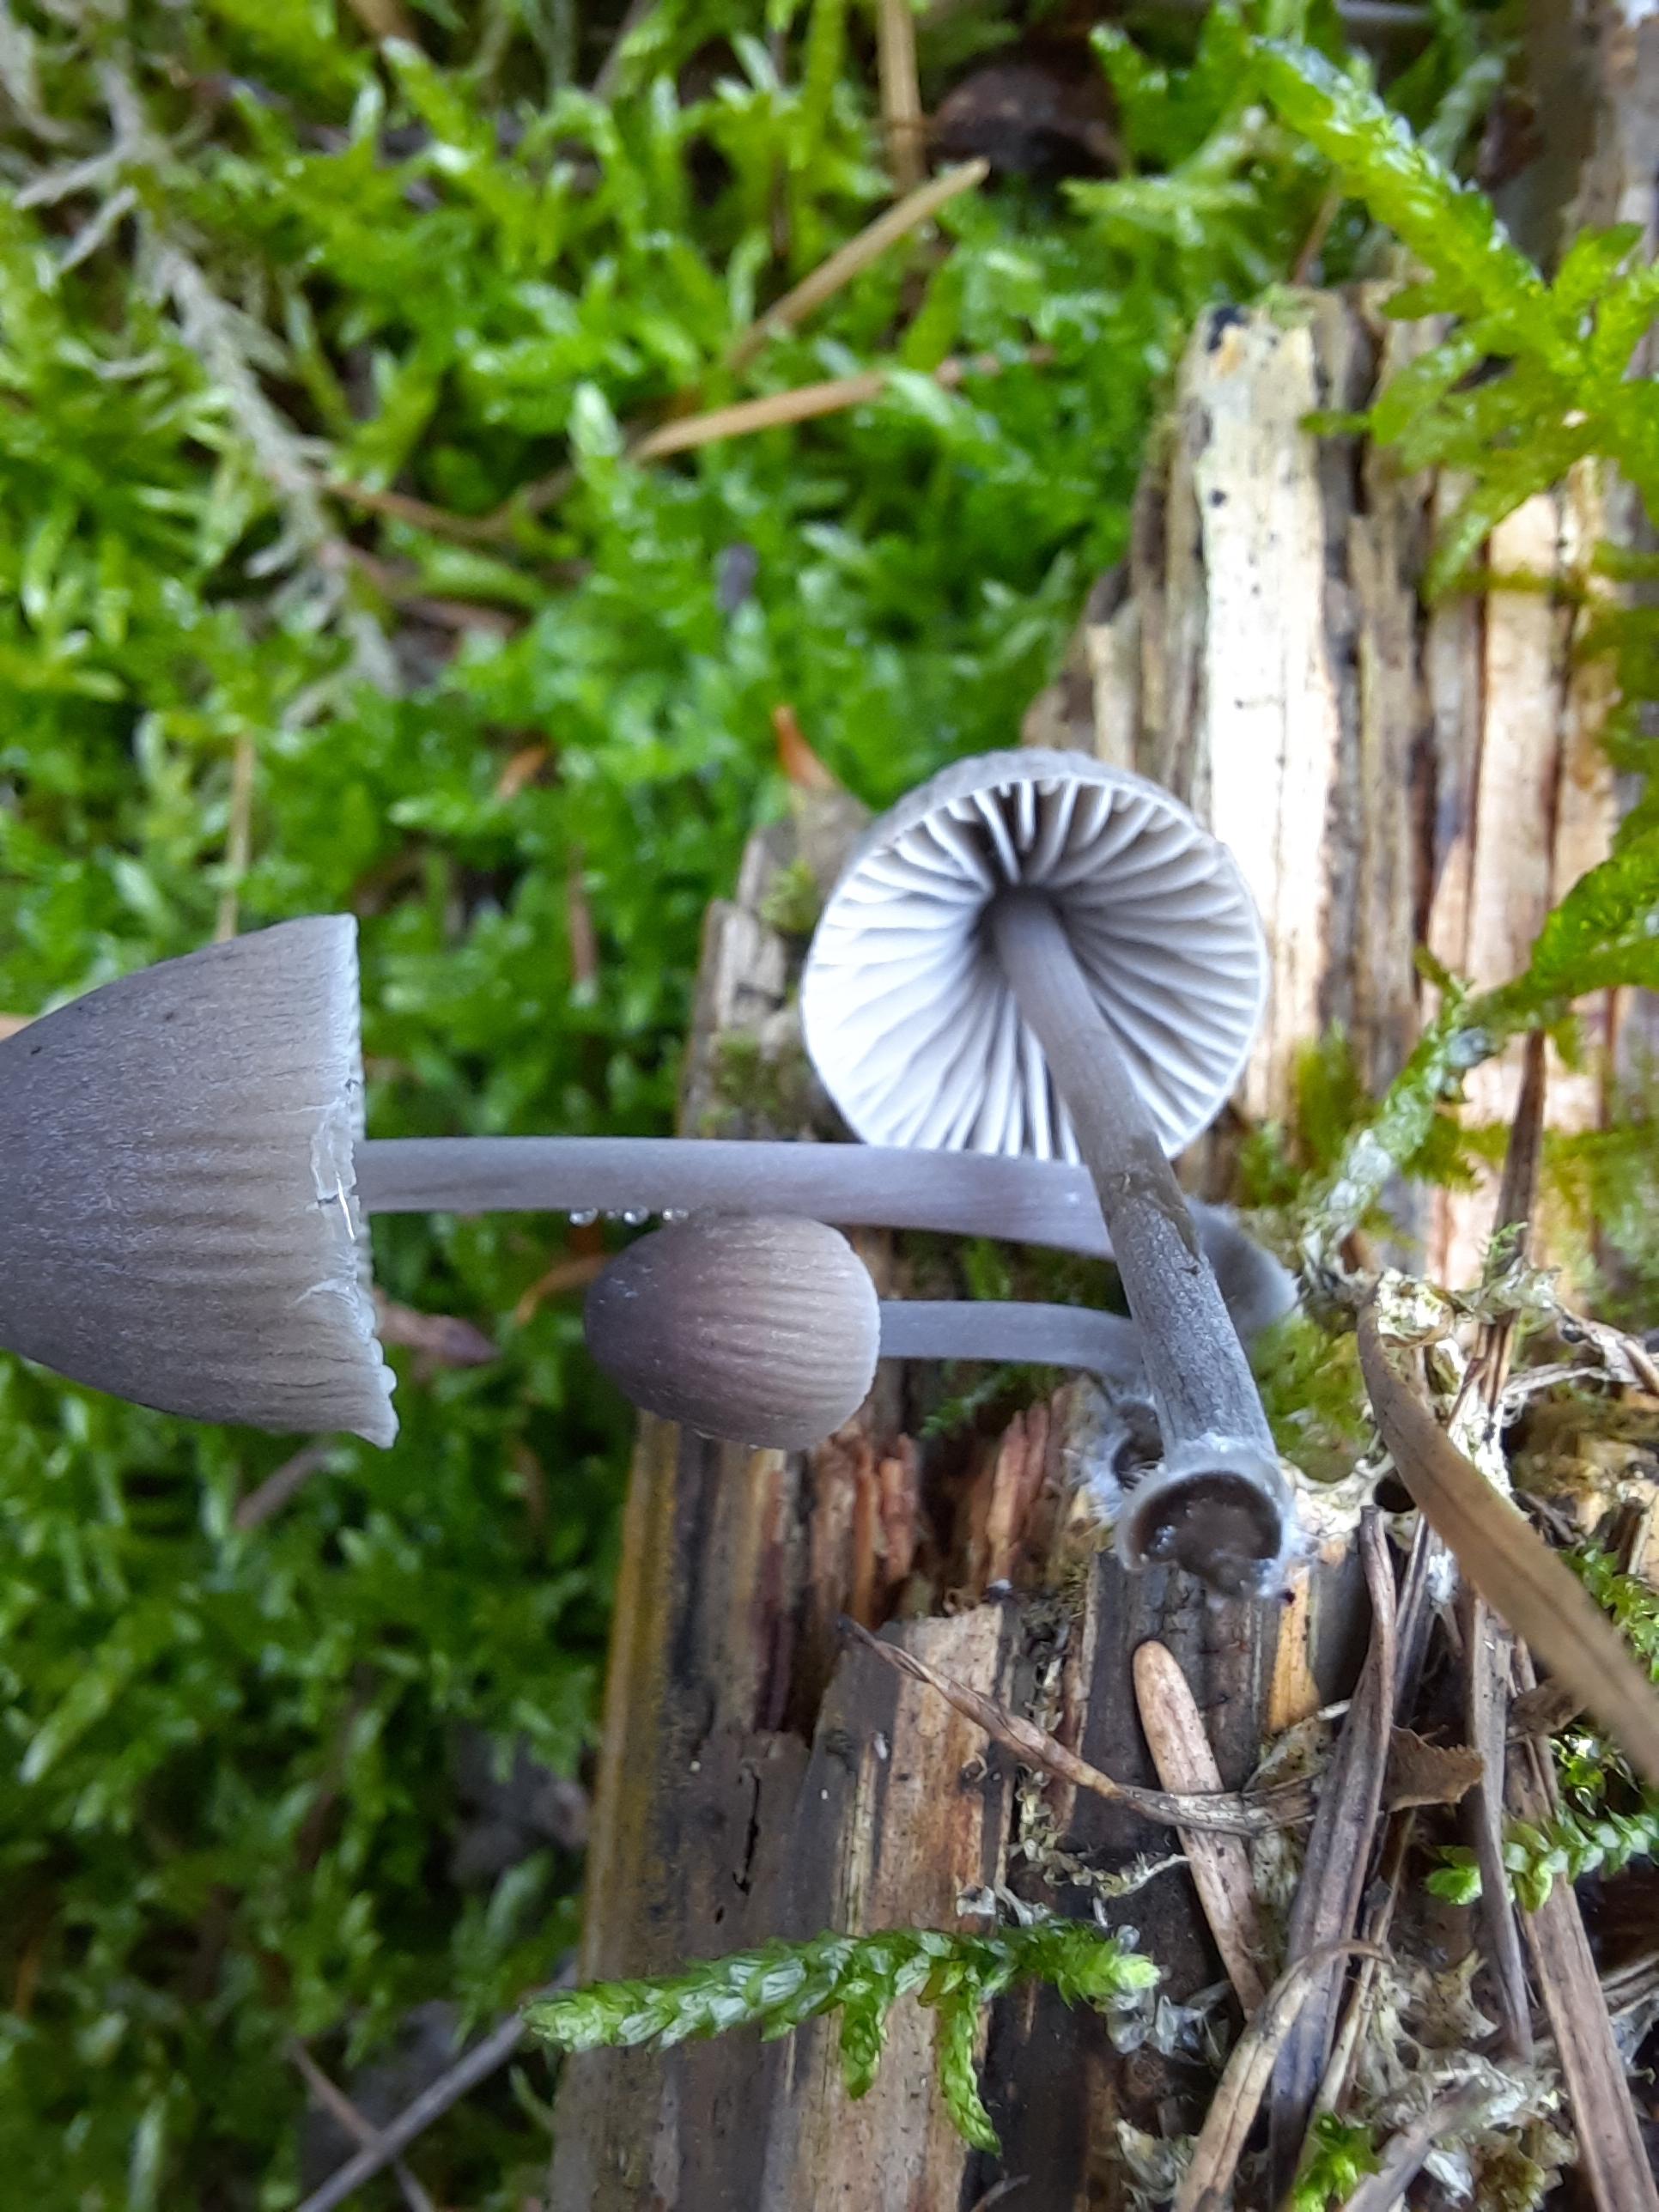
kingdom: Fungi
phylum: Basidiomycota
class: Agaricomycetes
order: Agaricales
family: Mycenaceae
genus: Mycena
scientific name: Mycena abramsii
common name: sommer-huesvamp
